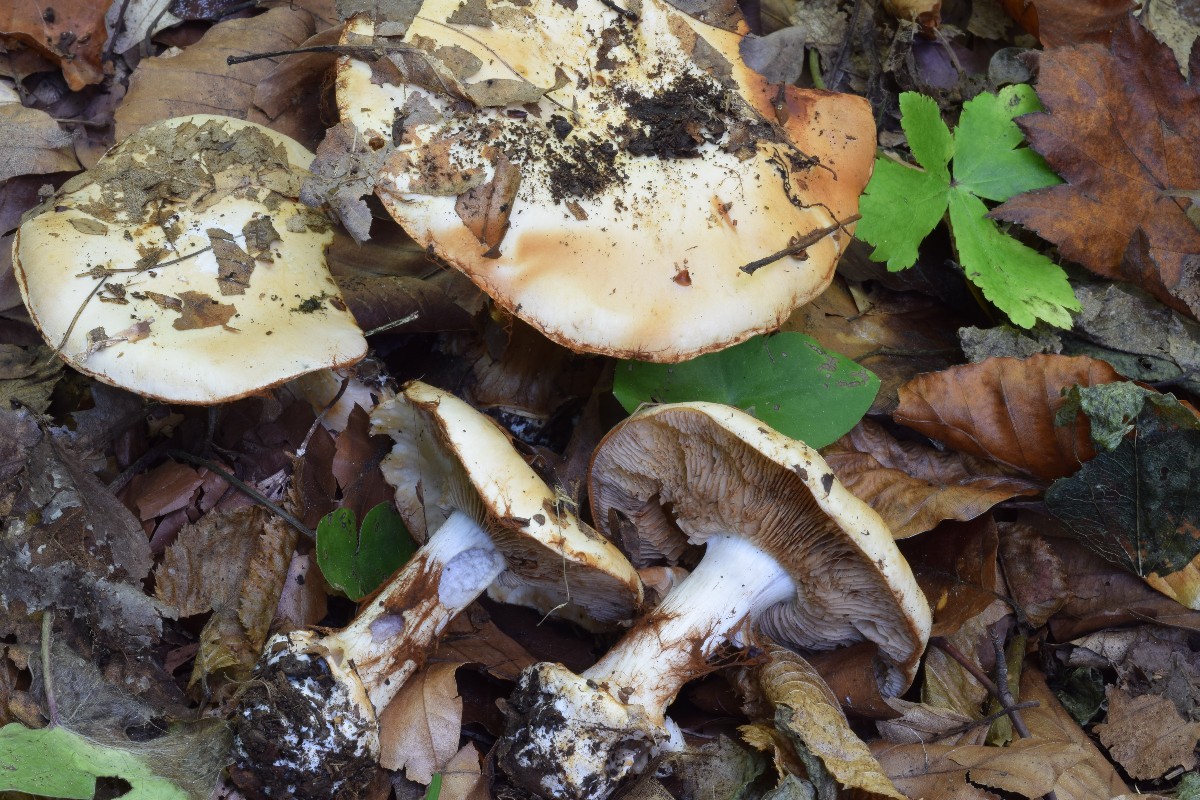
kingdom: Fungi
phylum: Basidiomycota
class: Agaricomycetes
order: Agaricales
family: Cortinariaceae
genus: Cortinarius
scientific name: Cortinarius caroviolaceus
